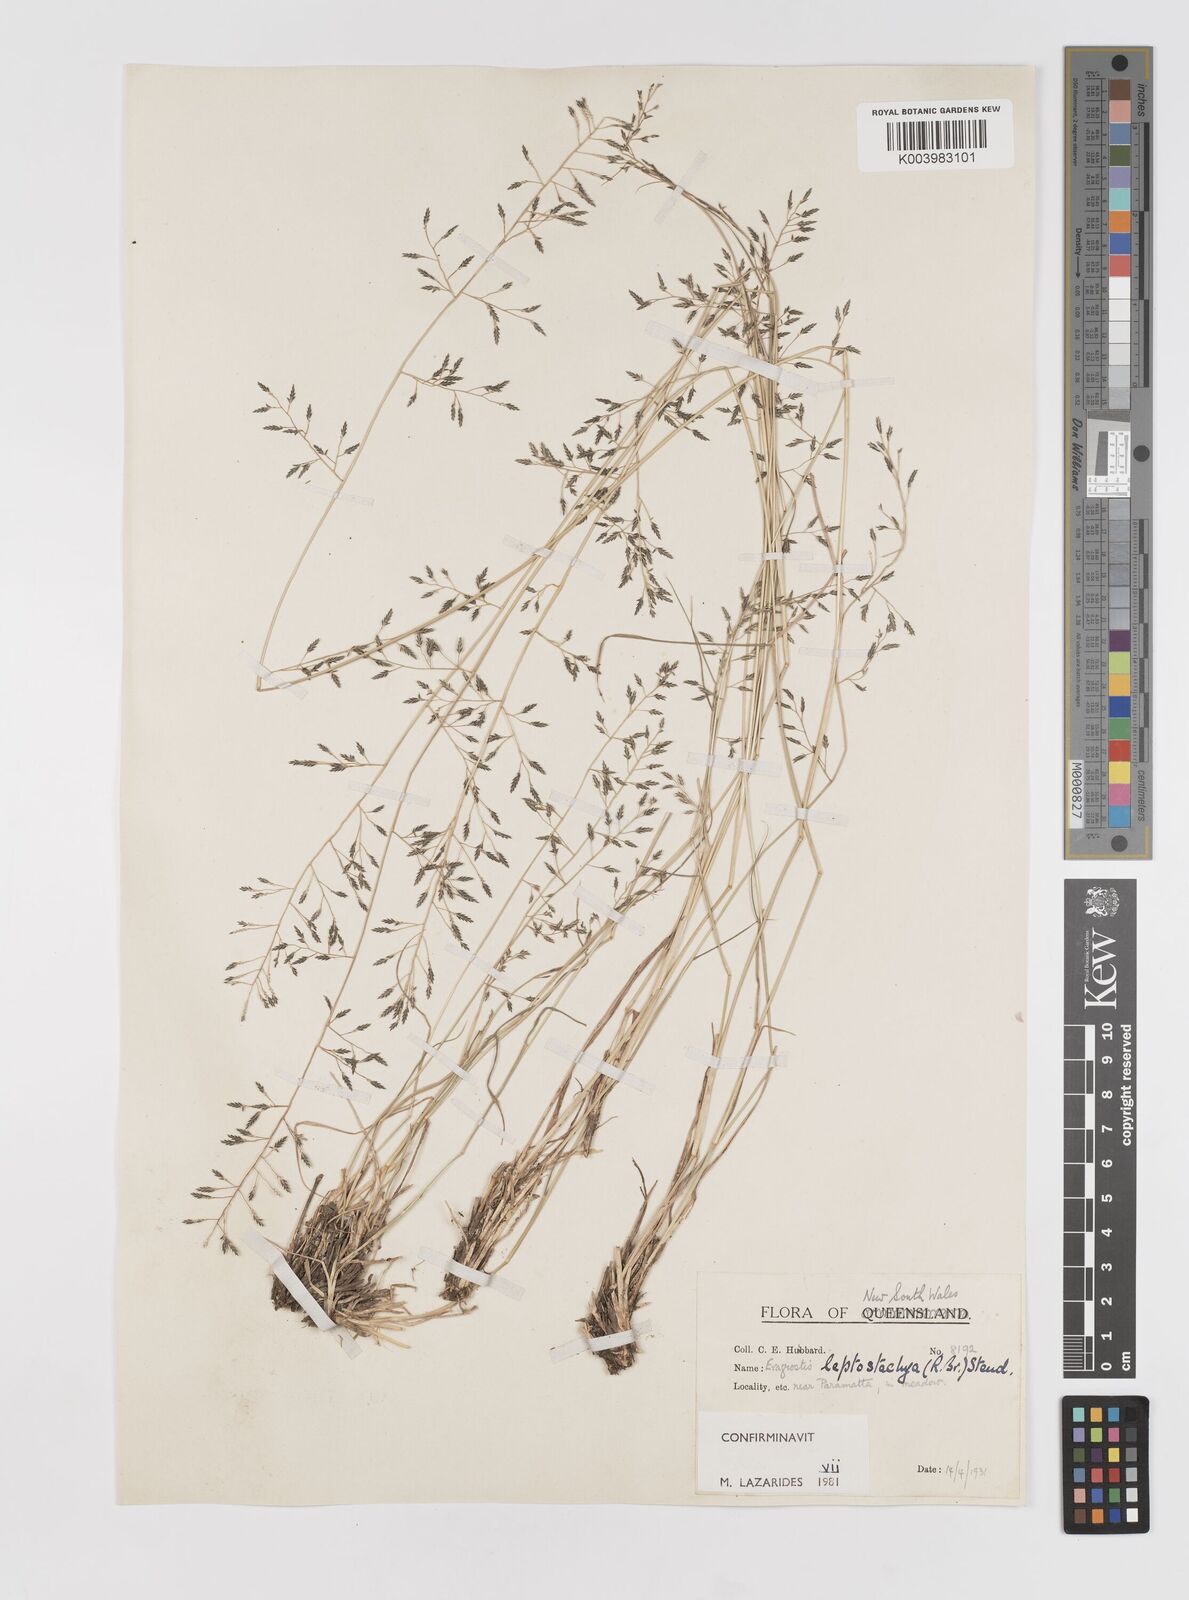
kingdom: Plantae
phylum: Tracheophyta
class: Liliopsida
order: Poales
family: Poaceae
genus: Eragrostis
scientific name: Eragrostis leptostachya
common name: Australian lovegrass
